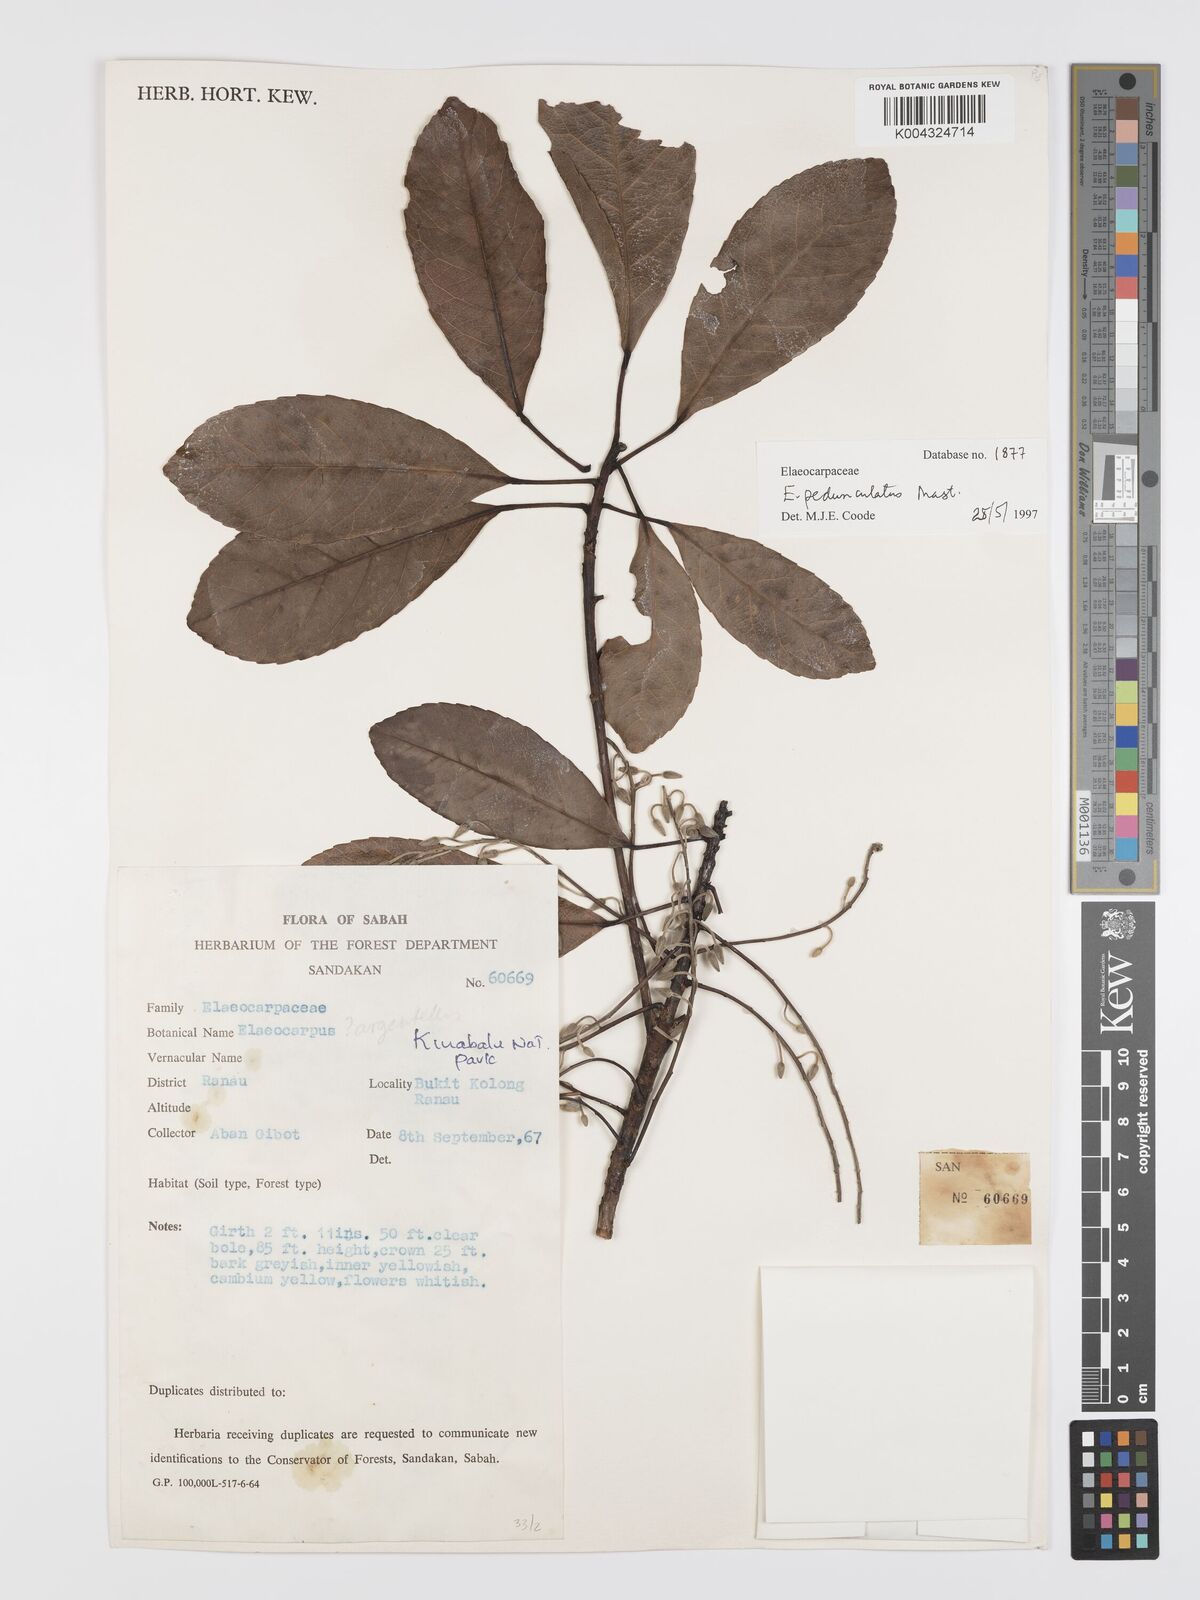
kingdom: Plantae
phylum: Tracheophyta
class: Magnoliopsida
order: Oxalidales
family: Elaeocarpaceae
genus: Elaeocarpus
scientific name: Elaeocarpus pedunculatus
